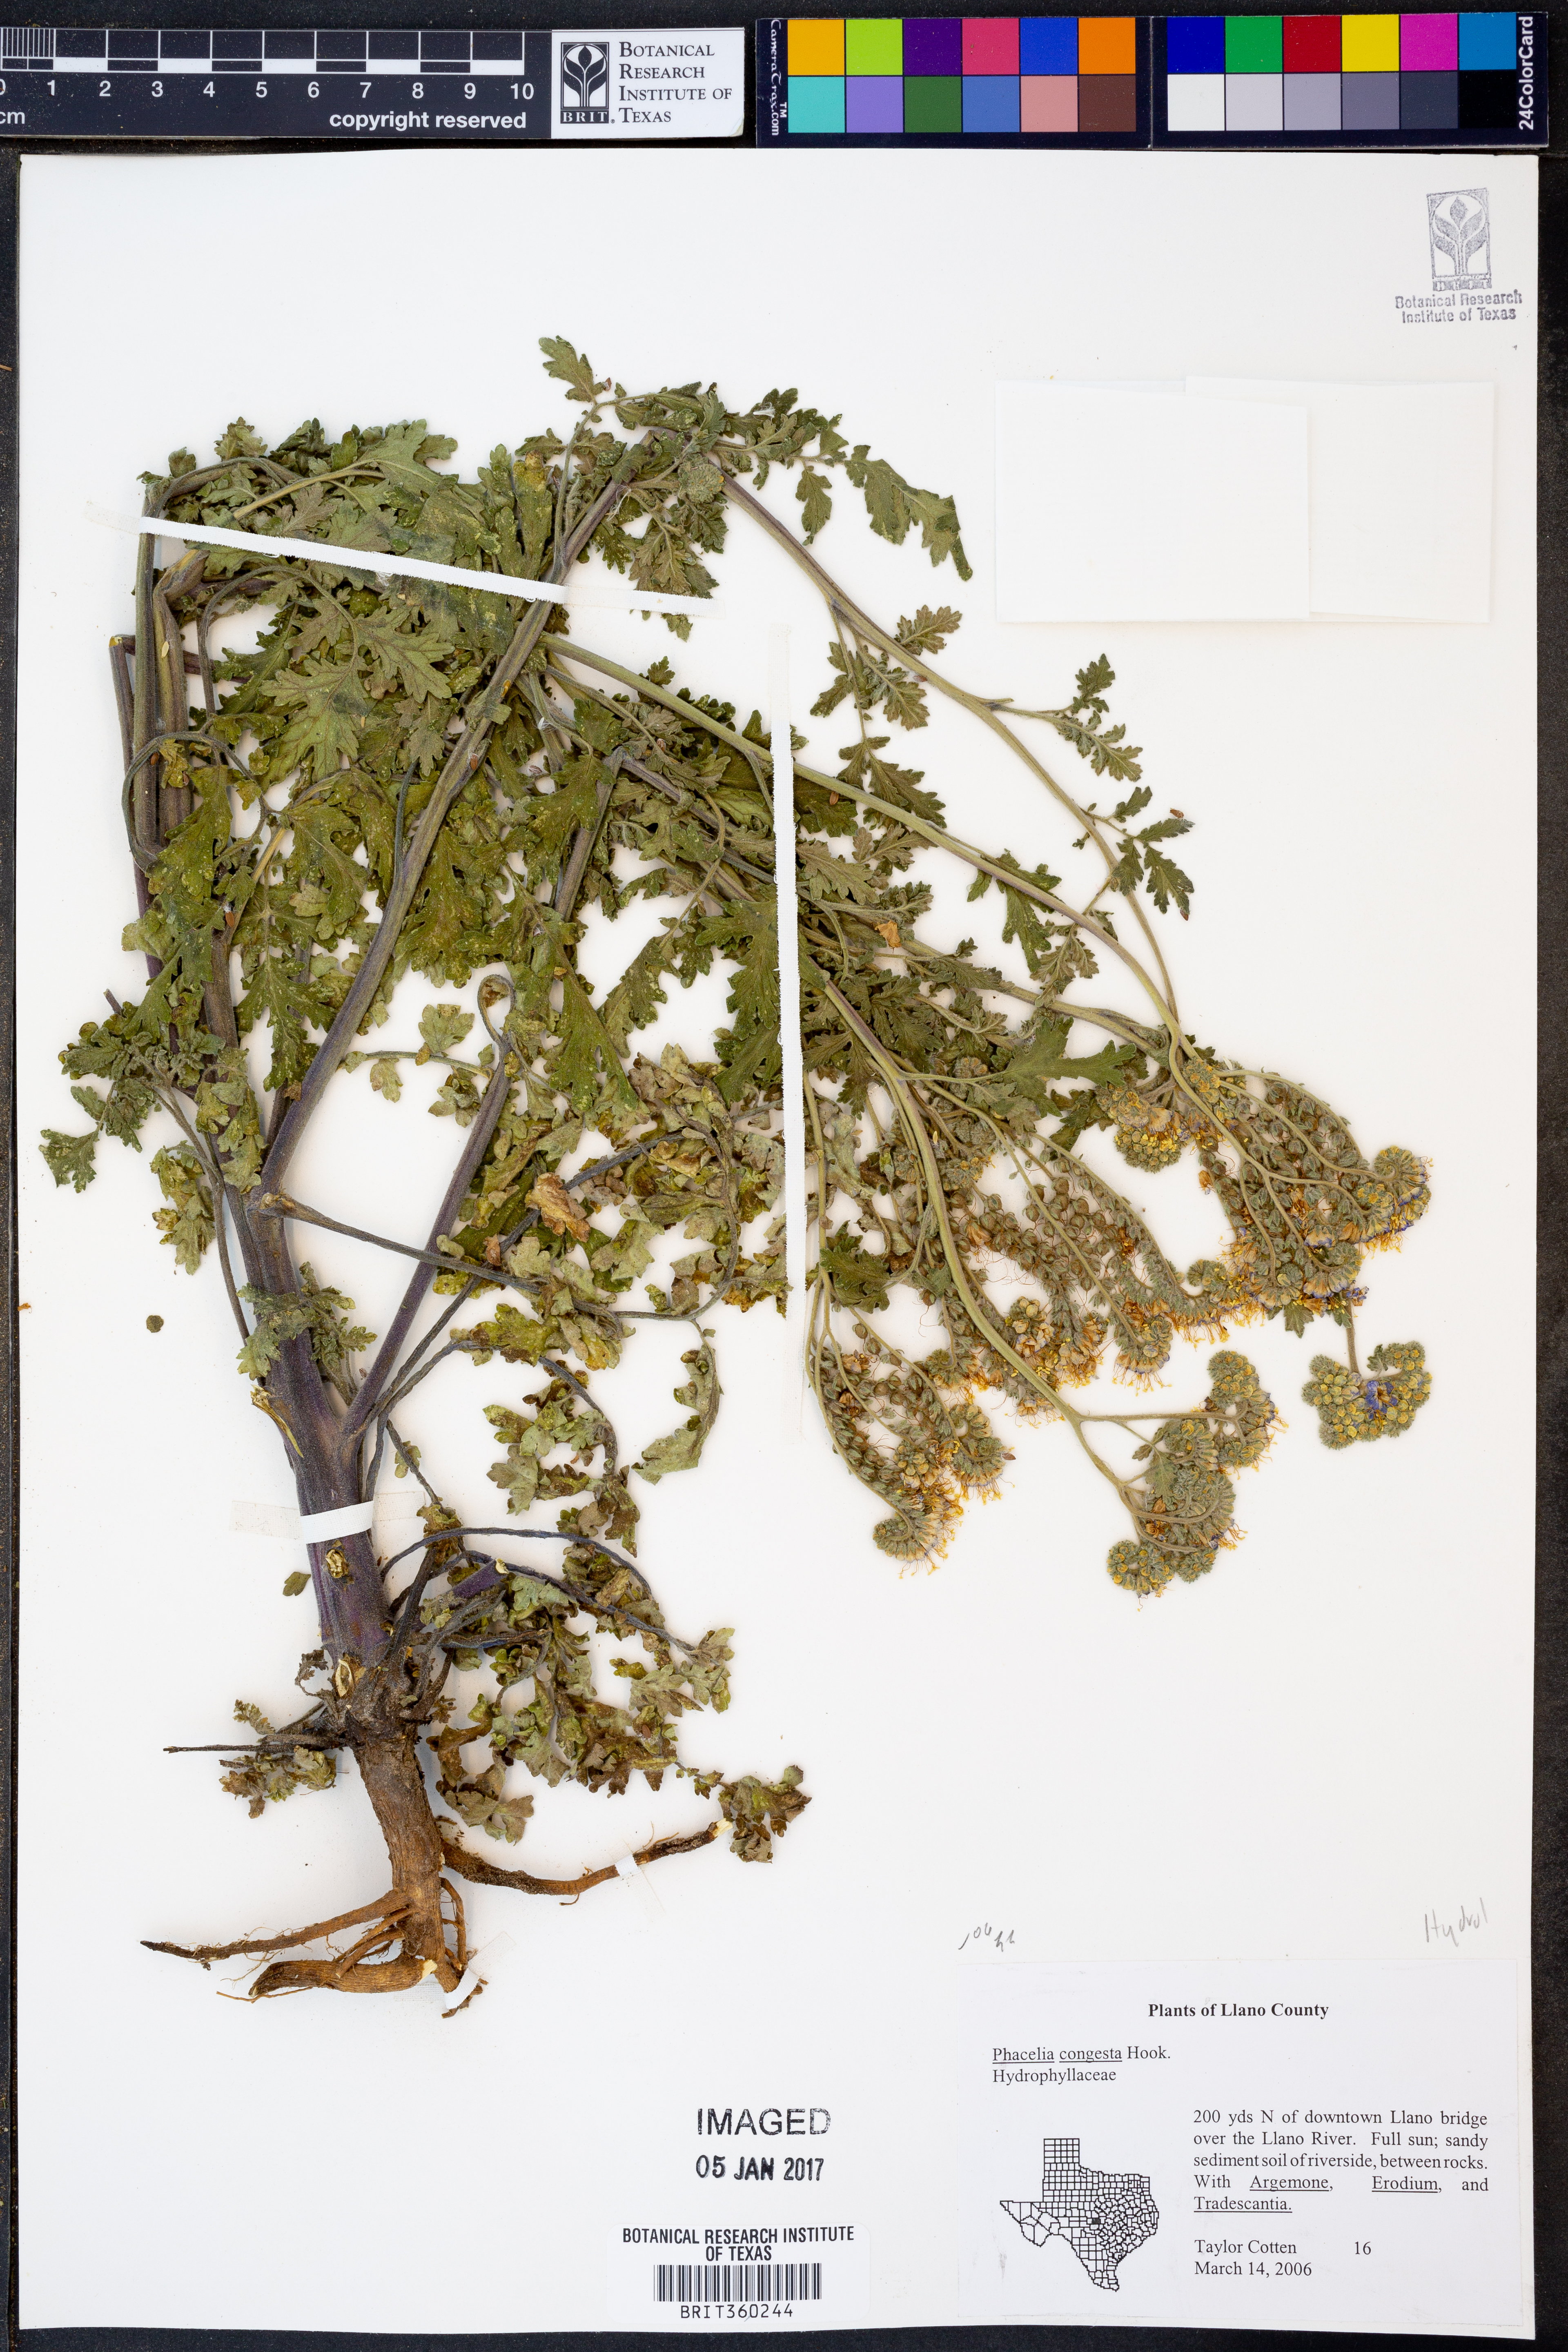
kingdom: Plantae
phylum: Tracheophyta
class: Magnoliopsida
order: Boraginales
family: Hydrophyllaceae
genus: Phacelia
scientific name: Phacelia congesta
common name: Blue curls
